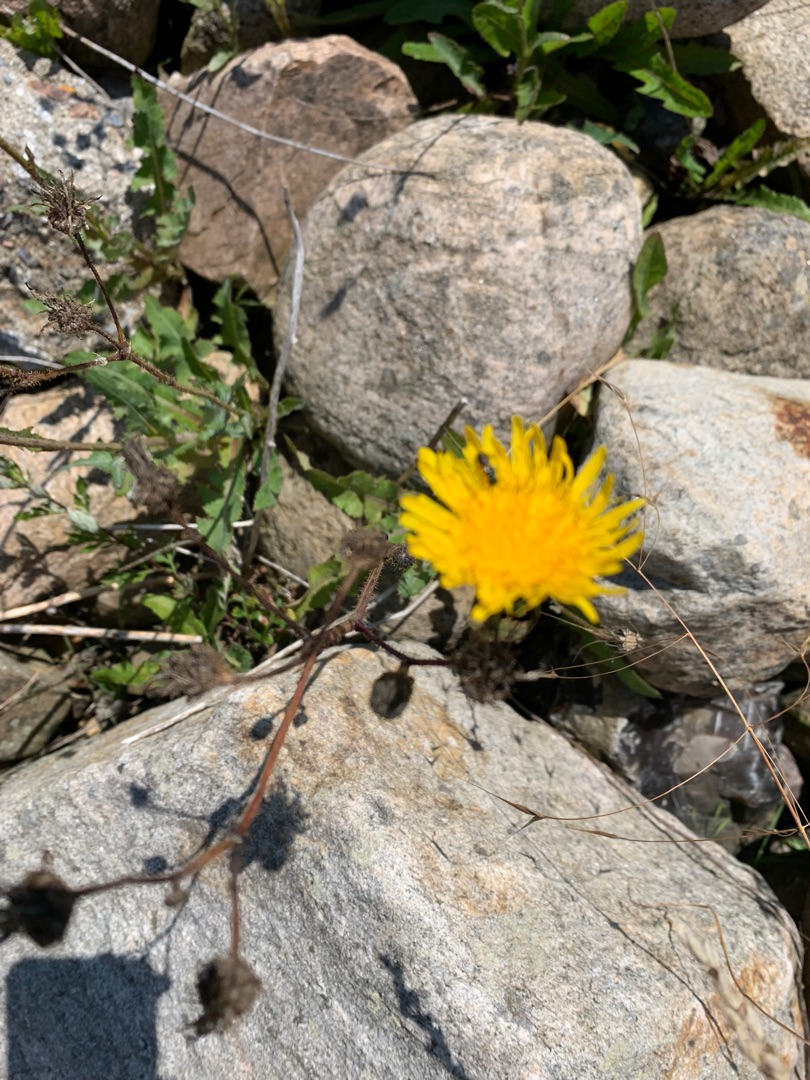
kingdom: Plantae
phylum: Tracheophyta
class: Magnoliopsida
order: Asterales
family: Asteraceae
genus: Sonchus
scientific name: Sonchus arvensis
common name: Ager-svinemælk
